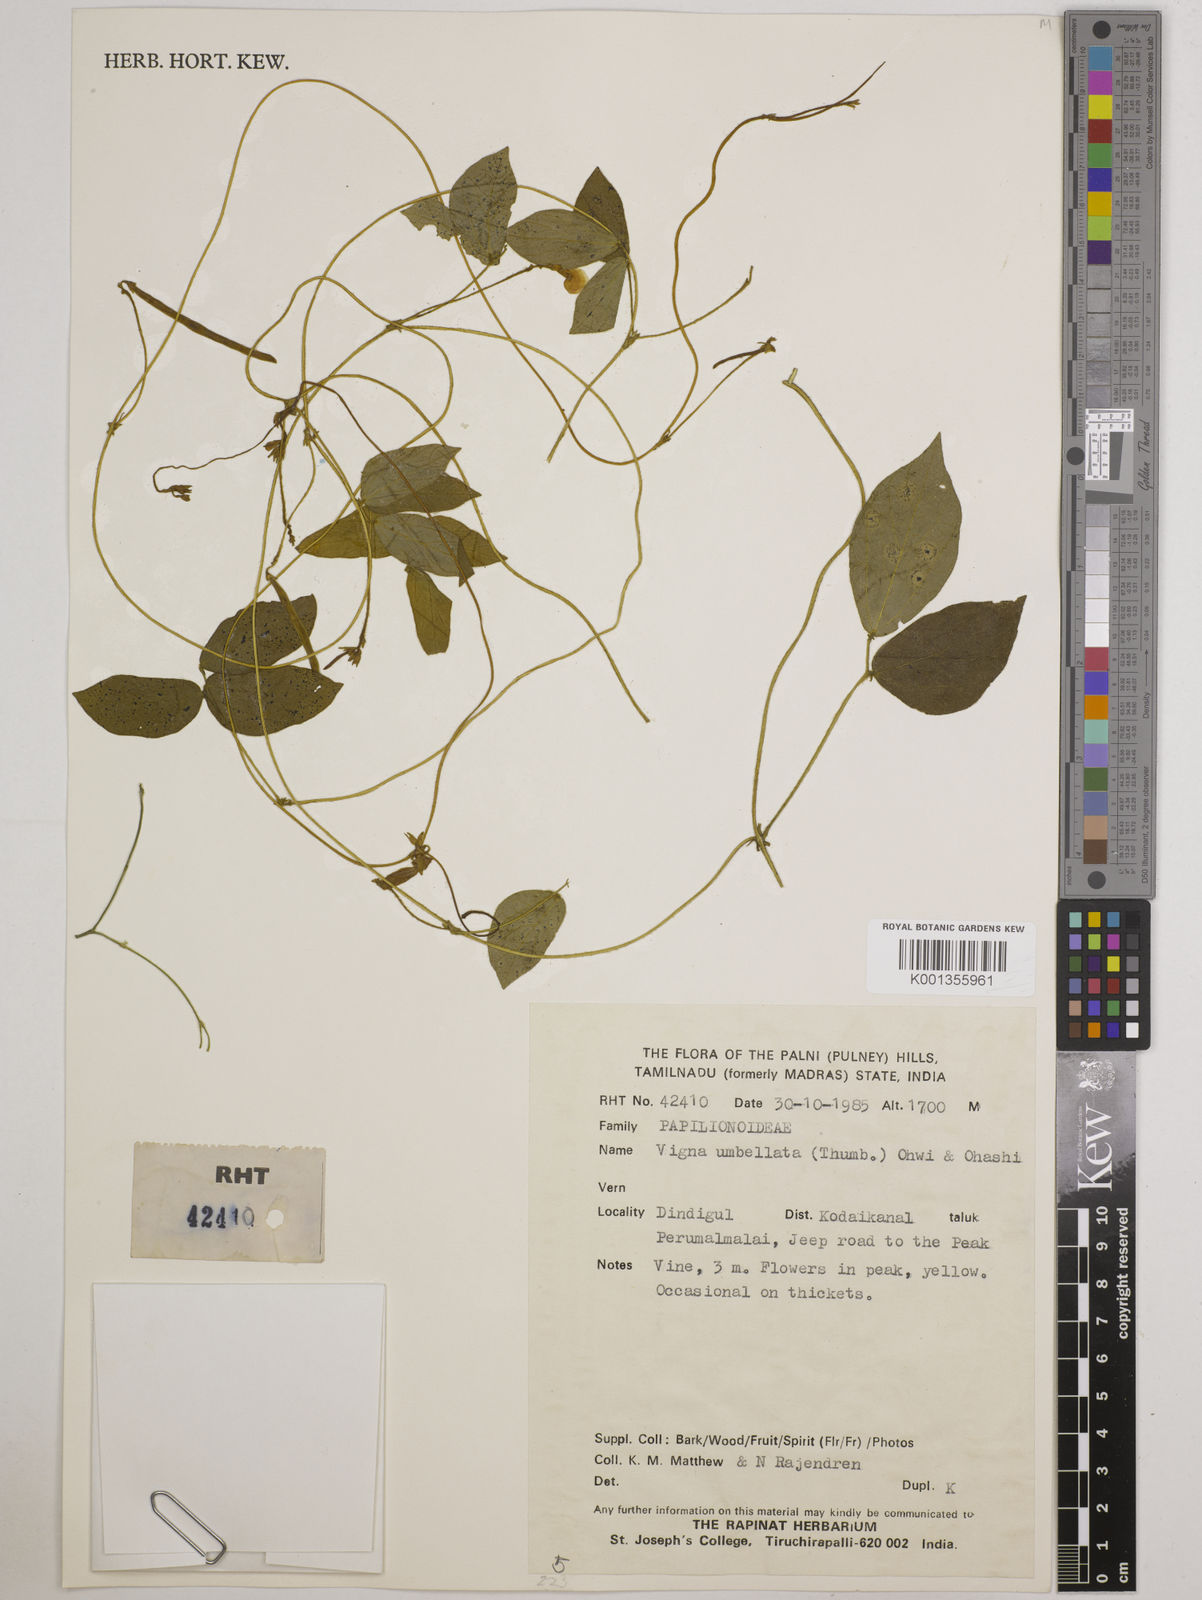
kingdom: Plantae
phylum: Tracheophyta
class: Magnoliopsida
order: Fabales
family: Fabaceae
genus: Vigna
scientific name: Vigna umbellata
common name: Oriental-bean
